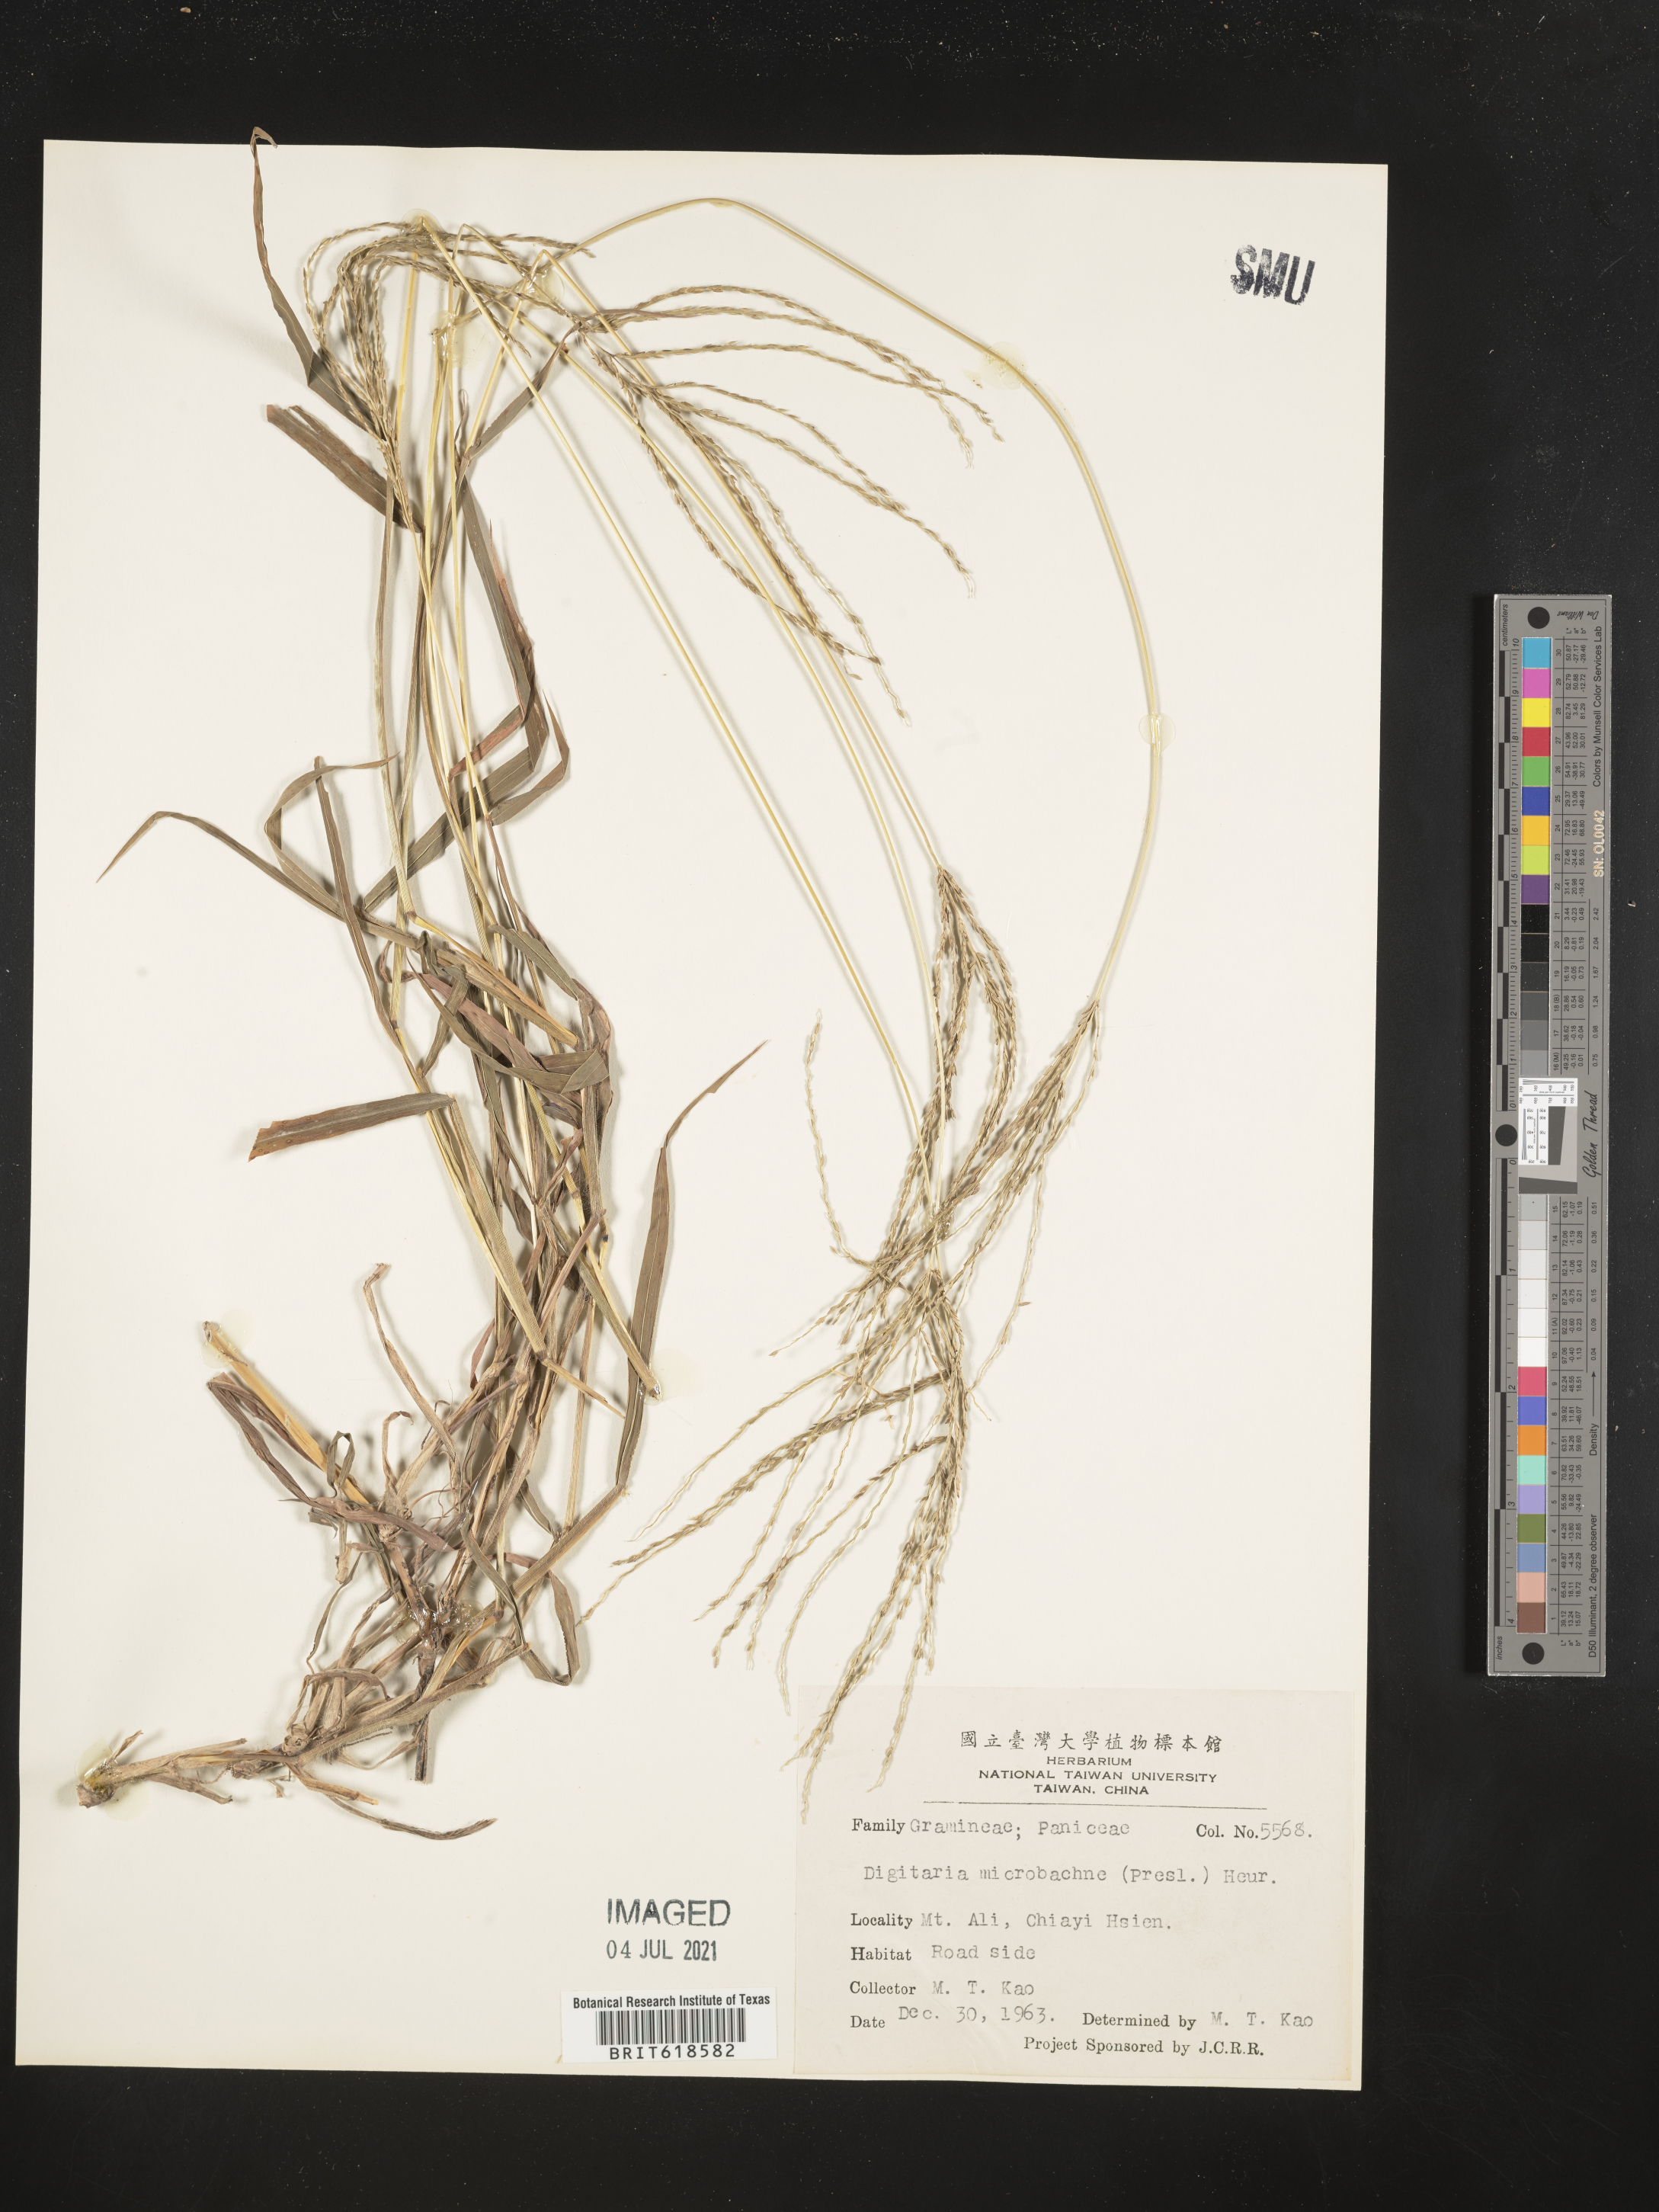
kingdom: Plantae
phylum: Tracheophyta
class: Liliopsida
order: Poales
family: Poaceae
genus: Digitaria
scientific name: Digitaria setigera
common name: East indian crabgrass
